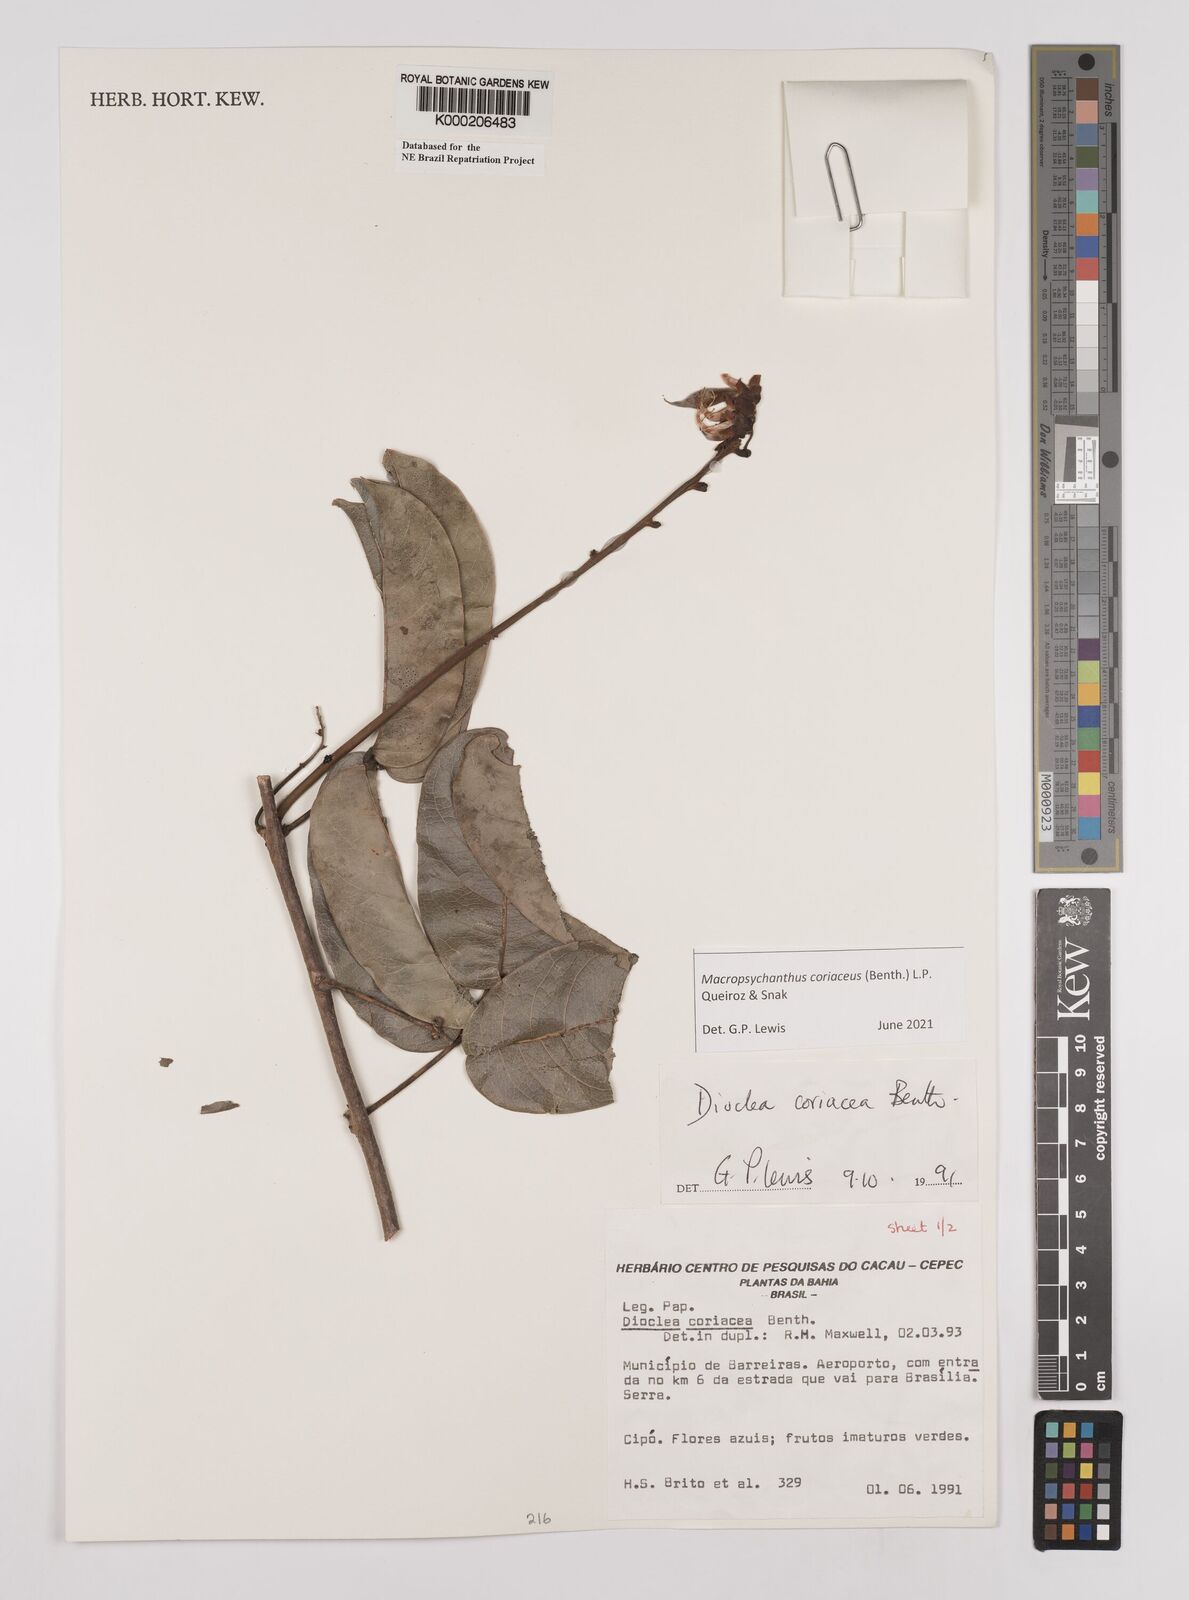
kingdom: Plantae
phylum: Tracheophyta
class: Magnoliopsida
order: Fabales
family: Fabaceae
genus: Macropsychanthus
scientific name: Macropsychanthus coriaceus
